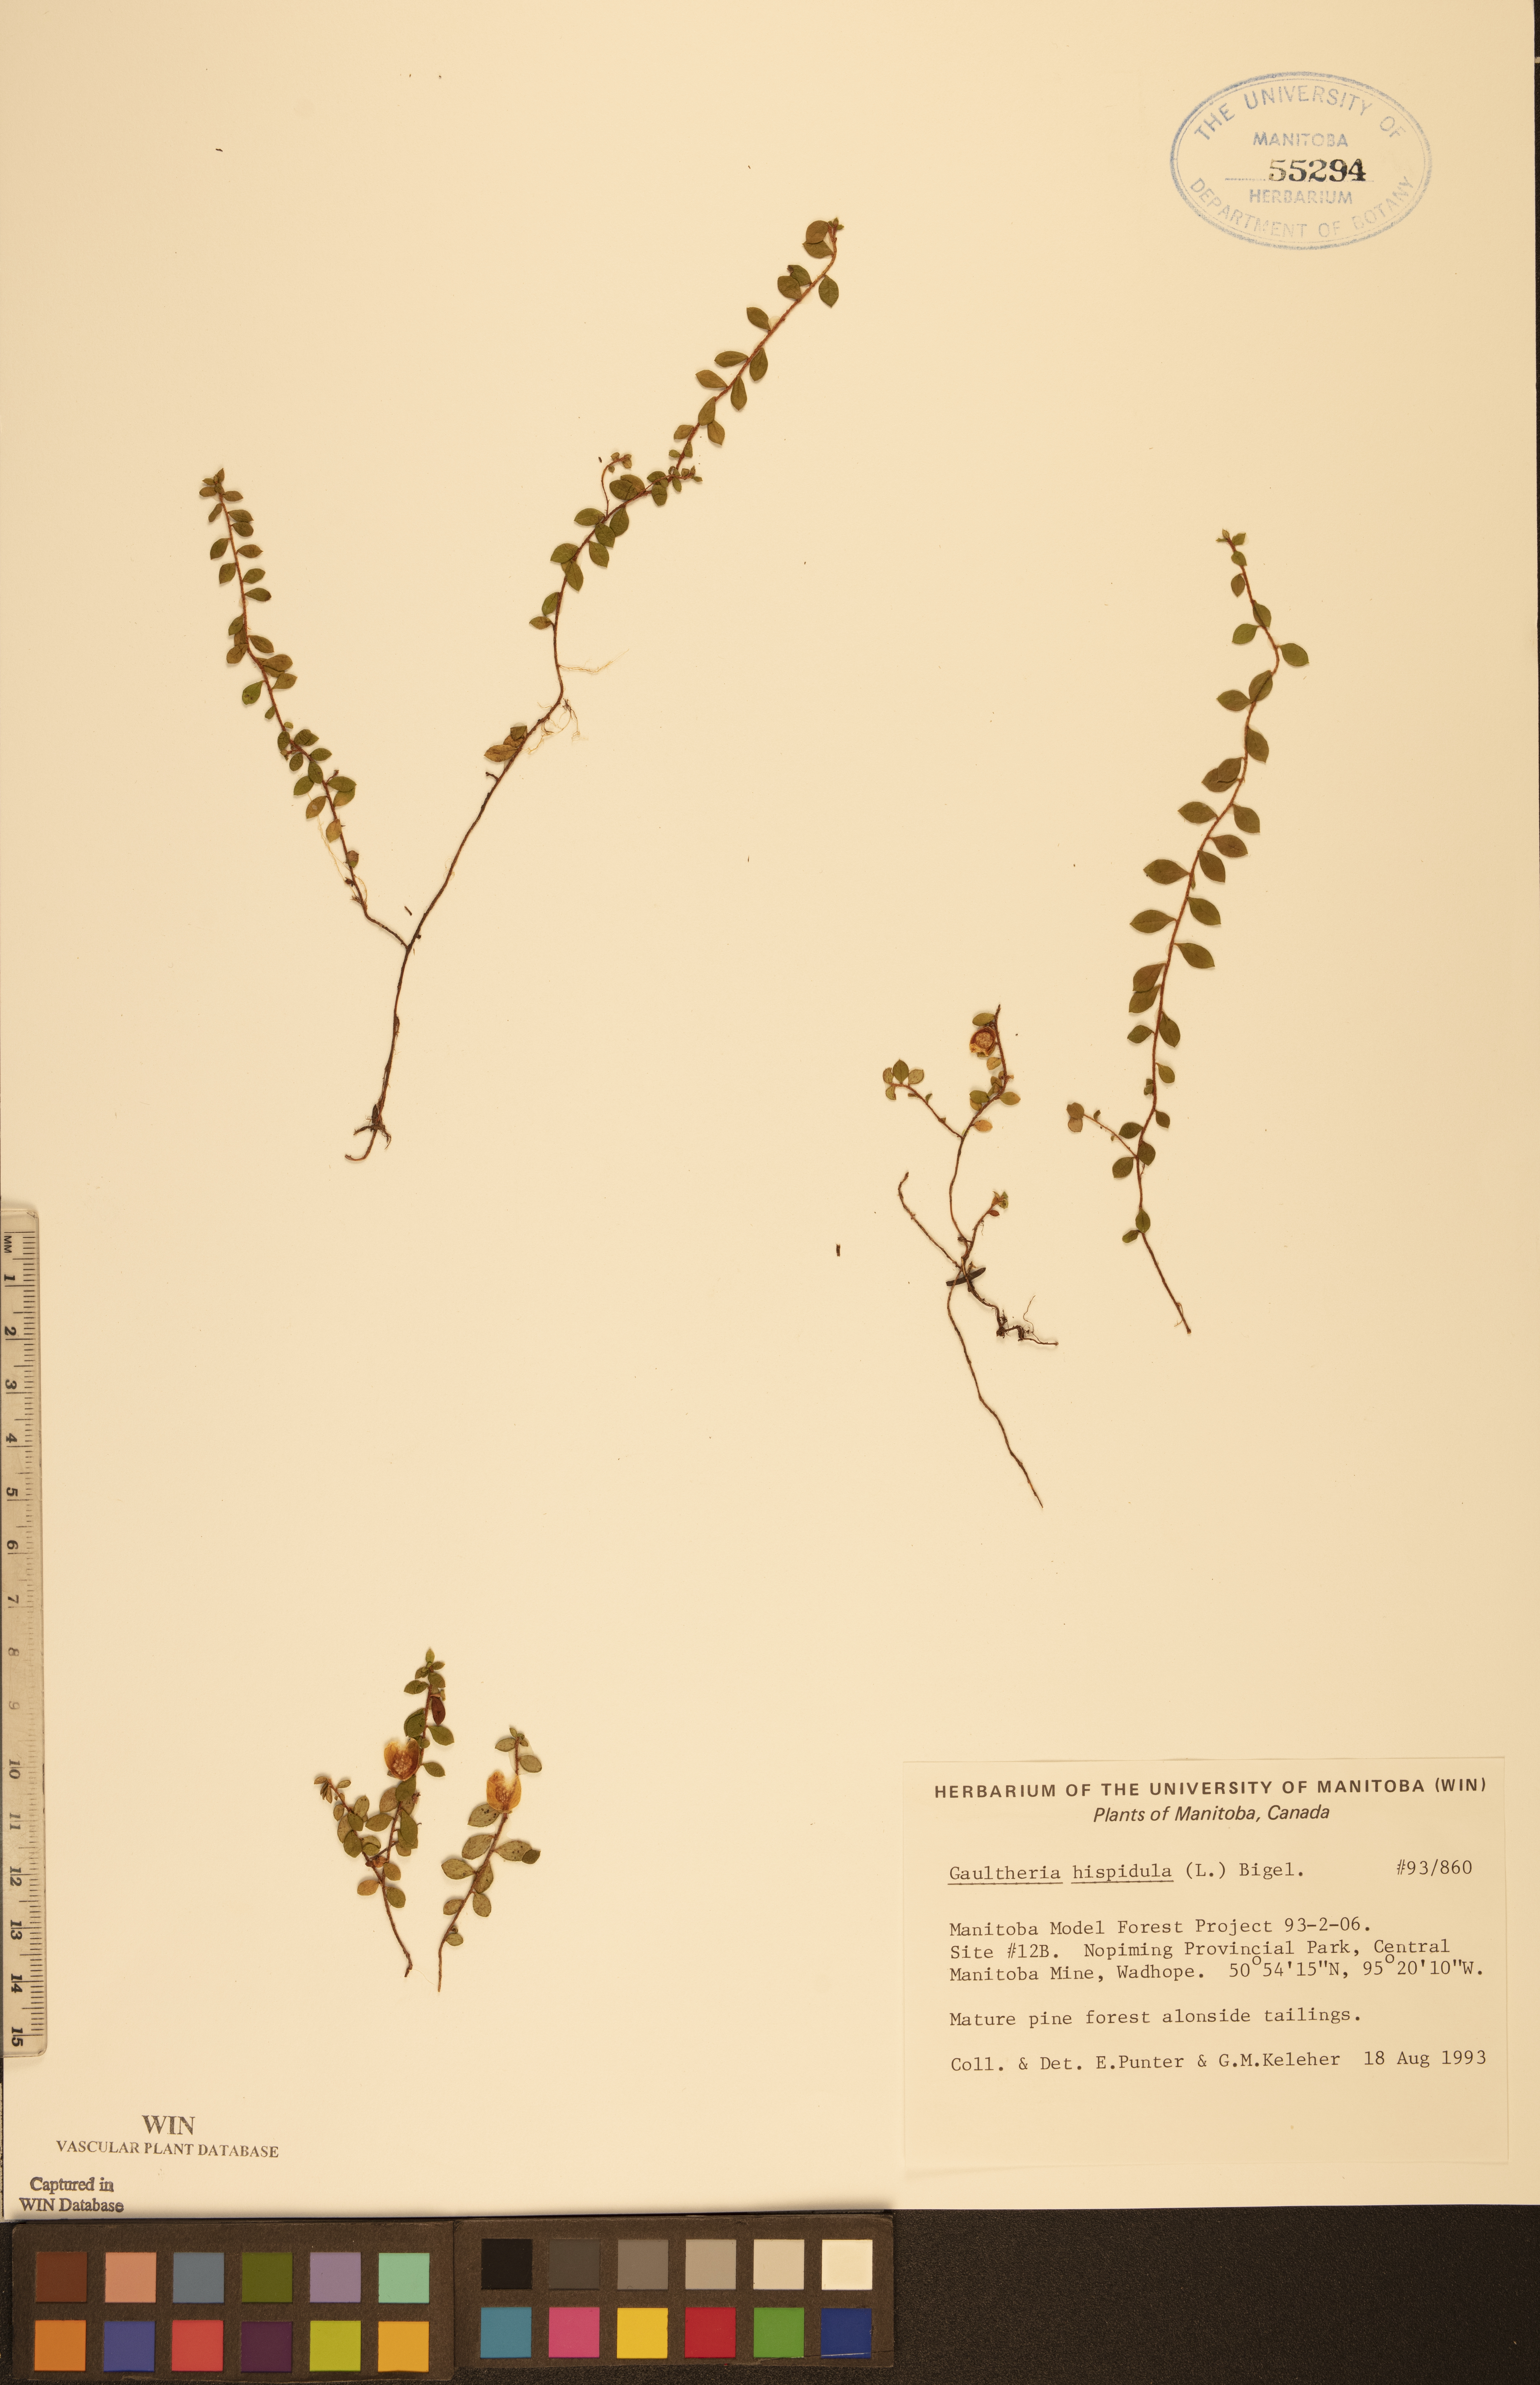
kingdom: Plantae
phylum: Tracheophyta
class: Magnoliopsida
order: Ericales
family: Ericaceae
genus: Gaultheria
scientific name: Gaultheria hispidula
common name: Cancer wintergreen
